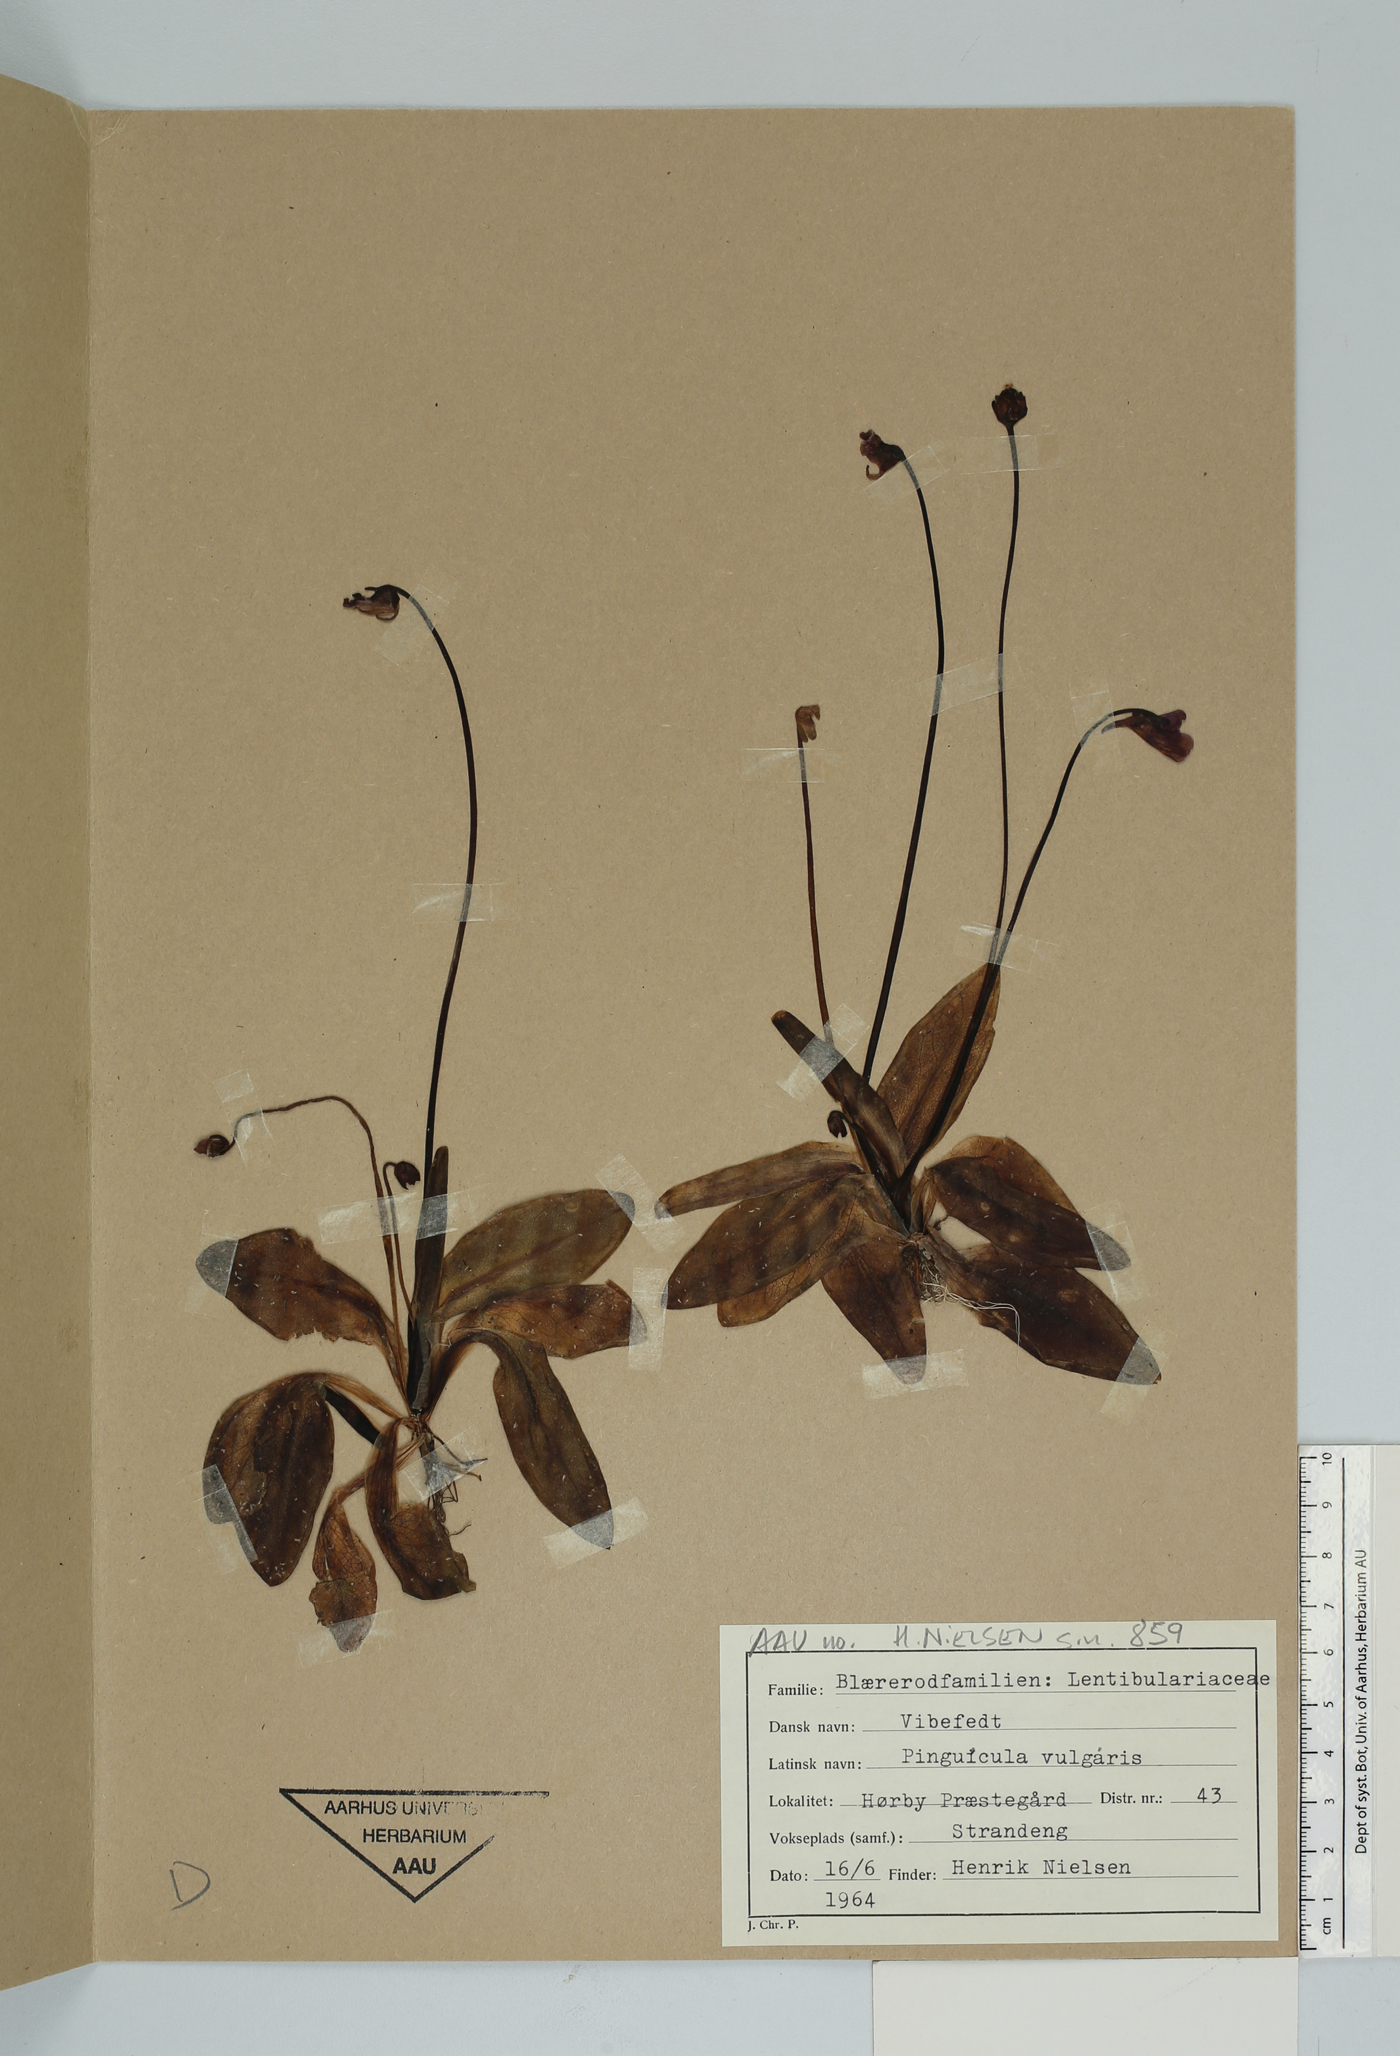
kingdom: Plantae
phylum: Tracheophyta
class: Magnoliopsida
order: Lamiales
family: Lentibulariaceae
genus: Pinguicula
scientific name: Pinguicula vulgaris
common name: Common butterwort
